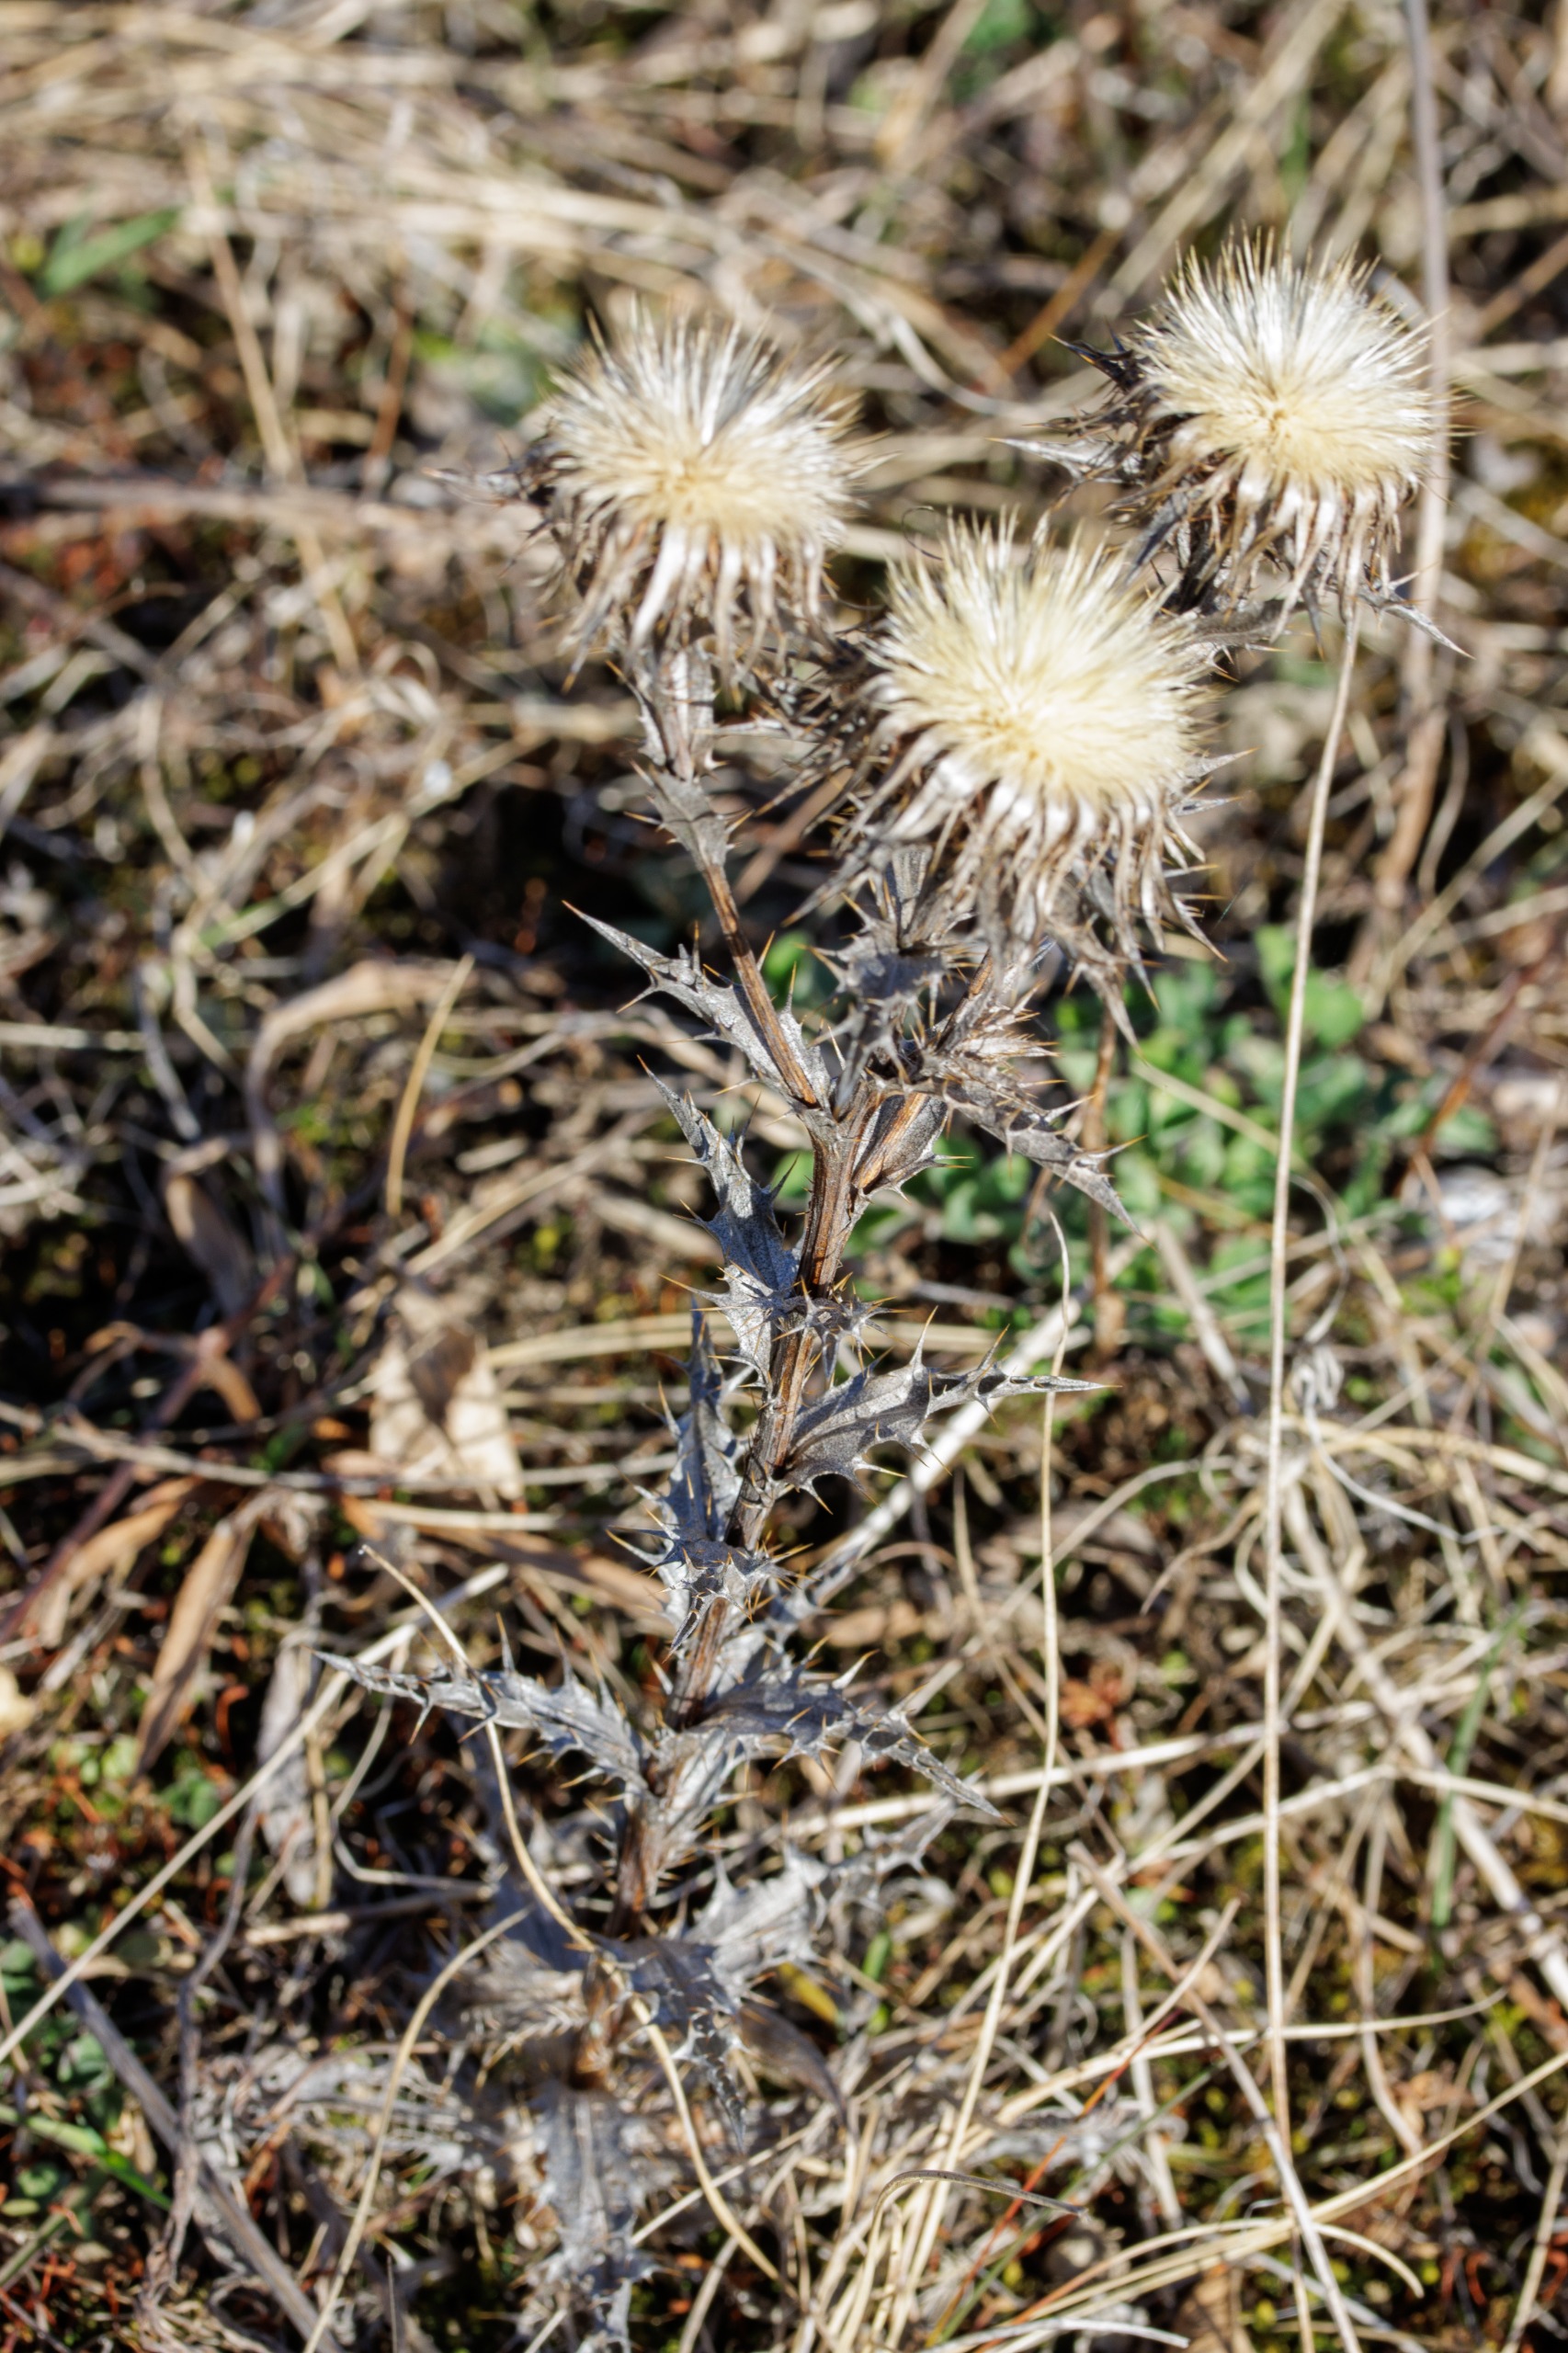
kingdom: Plantae
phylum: Tracheophyta
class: Magnoliopsida
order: Asterales
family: Asteraceae
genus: Carlina
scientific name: Carlina vulgaris
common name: Bakketidsel
